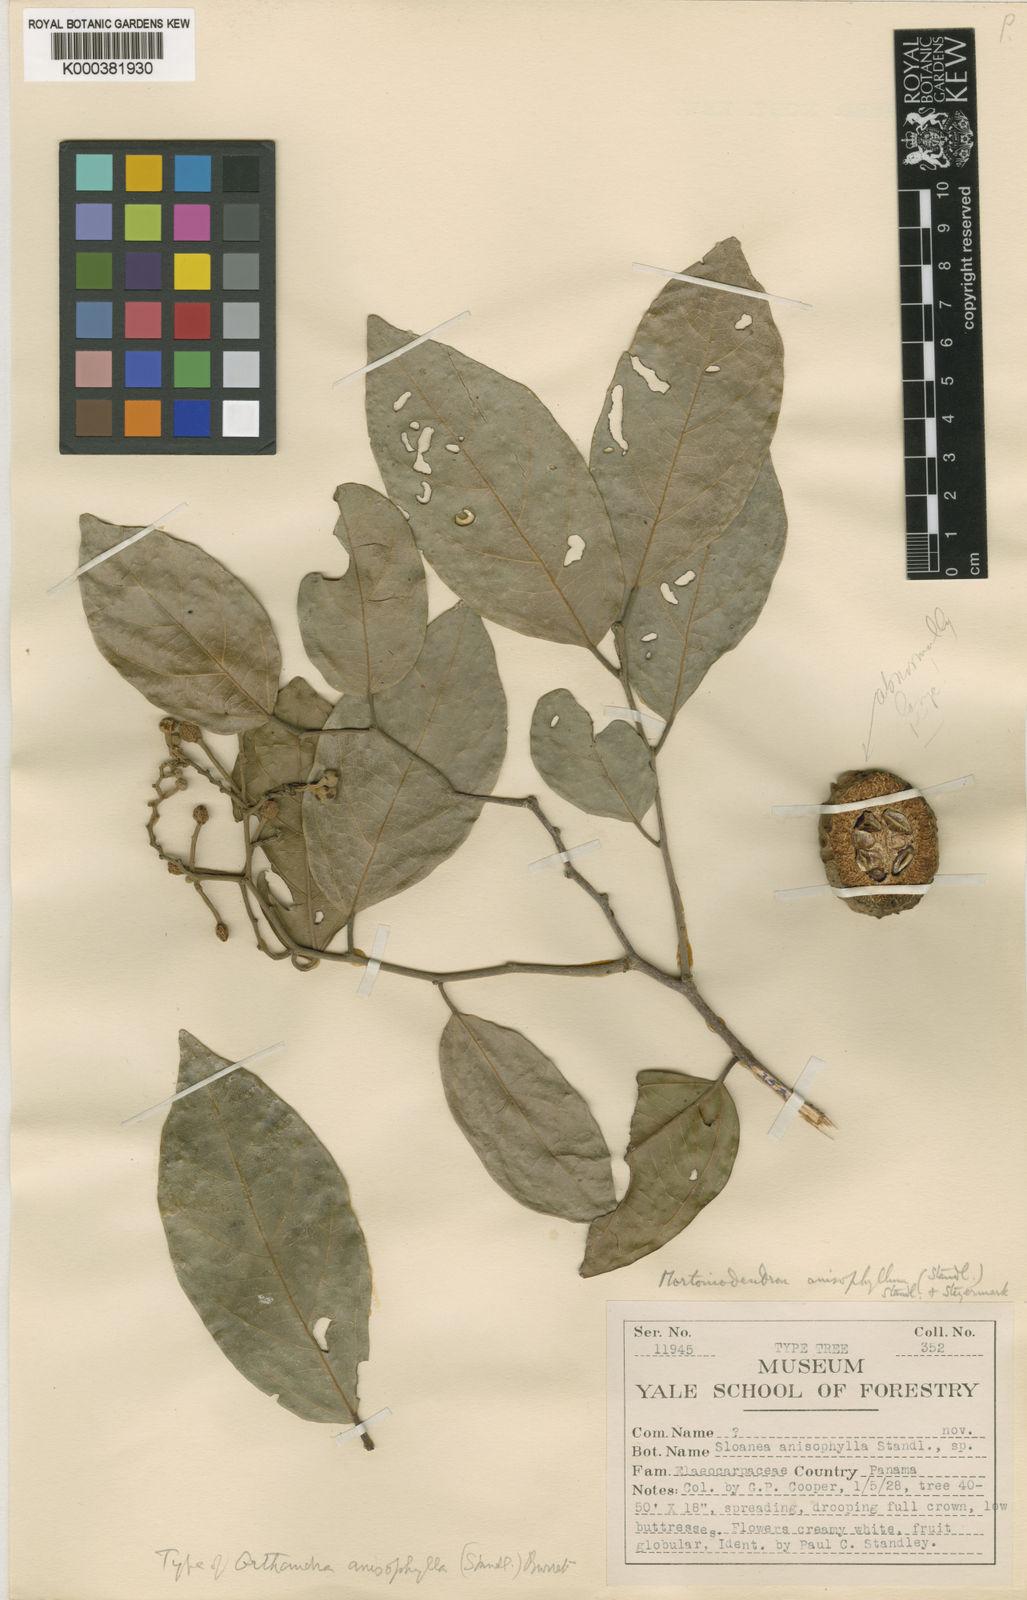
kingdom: Plantae
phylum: Tracheophyta
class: Magnoliopsida
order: Malvales
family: Malvaceae
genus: Mortoniodendron
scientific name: Mortoniodendron anisophyllum
